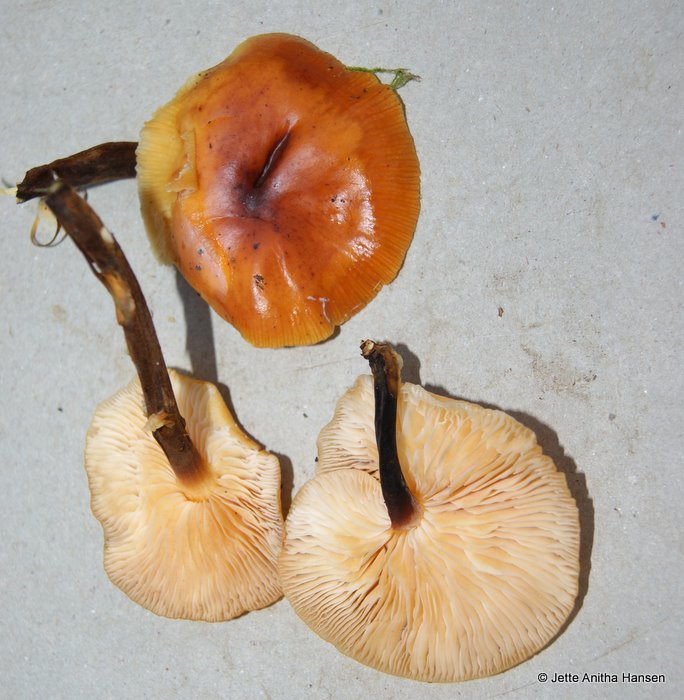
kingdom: Fungi
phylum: Basidiomycota
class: Agaricomycetes
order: Agaricales
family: Physalacriaceae
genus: Flammulina
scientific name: Flammulina velutipes
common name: gul fløjlsfod
